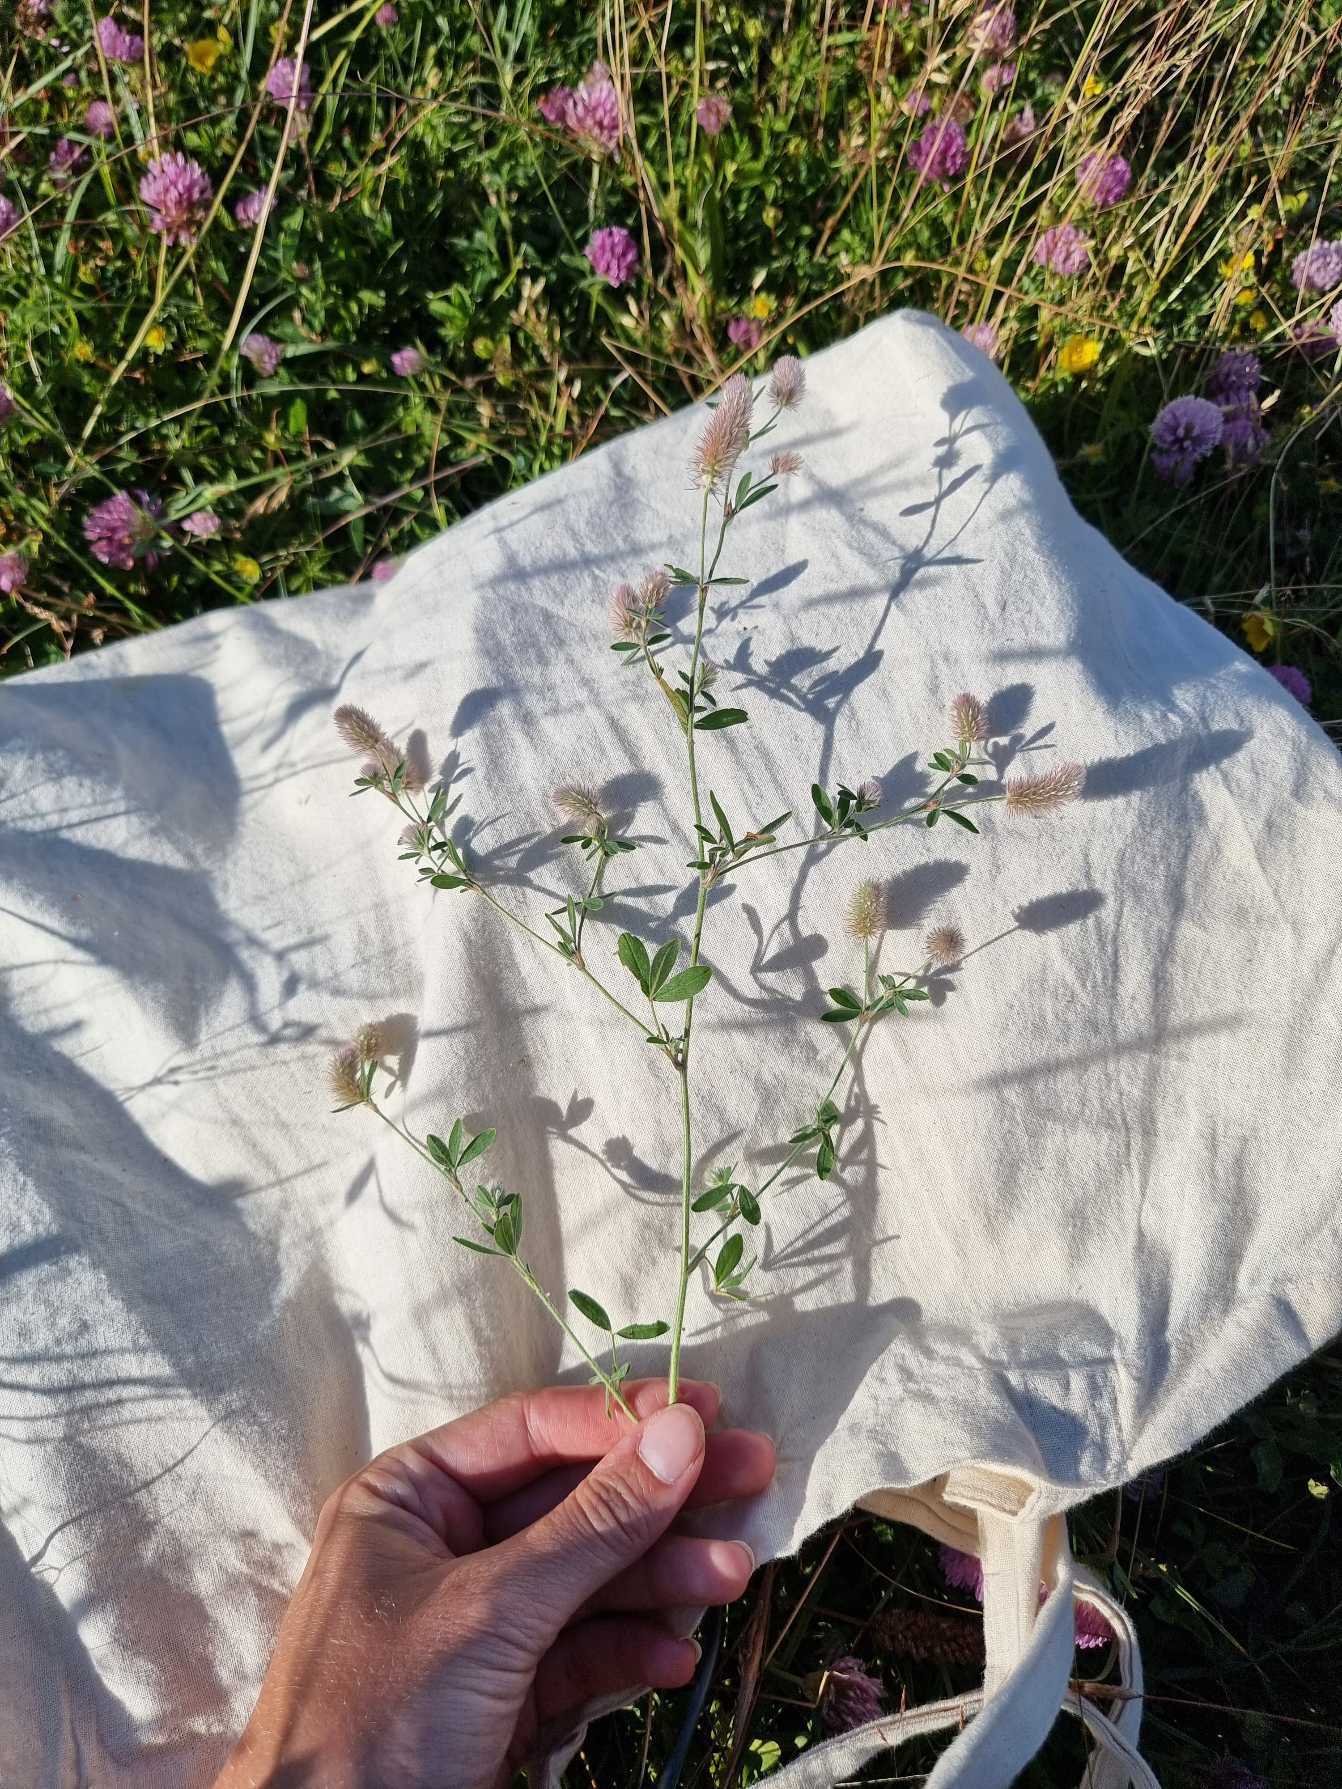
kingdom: Plantae
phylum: Tracheophyta
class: Magnoliopsida
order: Fabales
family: Fabaceae
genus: Trifolium
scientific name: Trifolium arvense
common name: Hare-kløver
